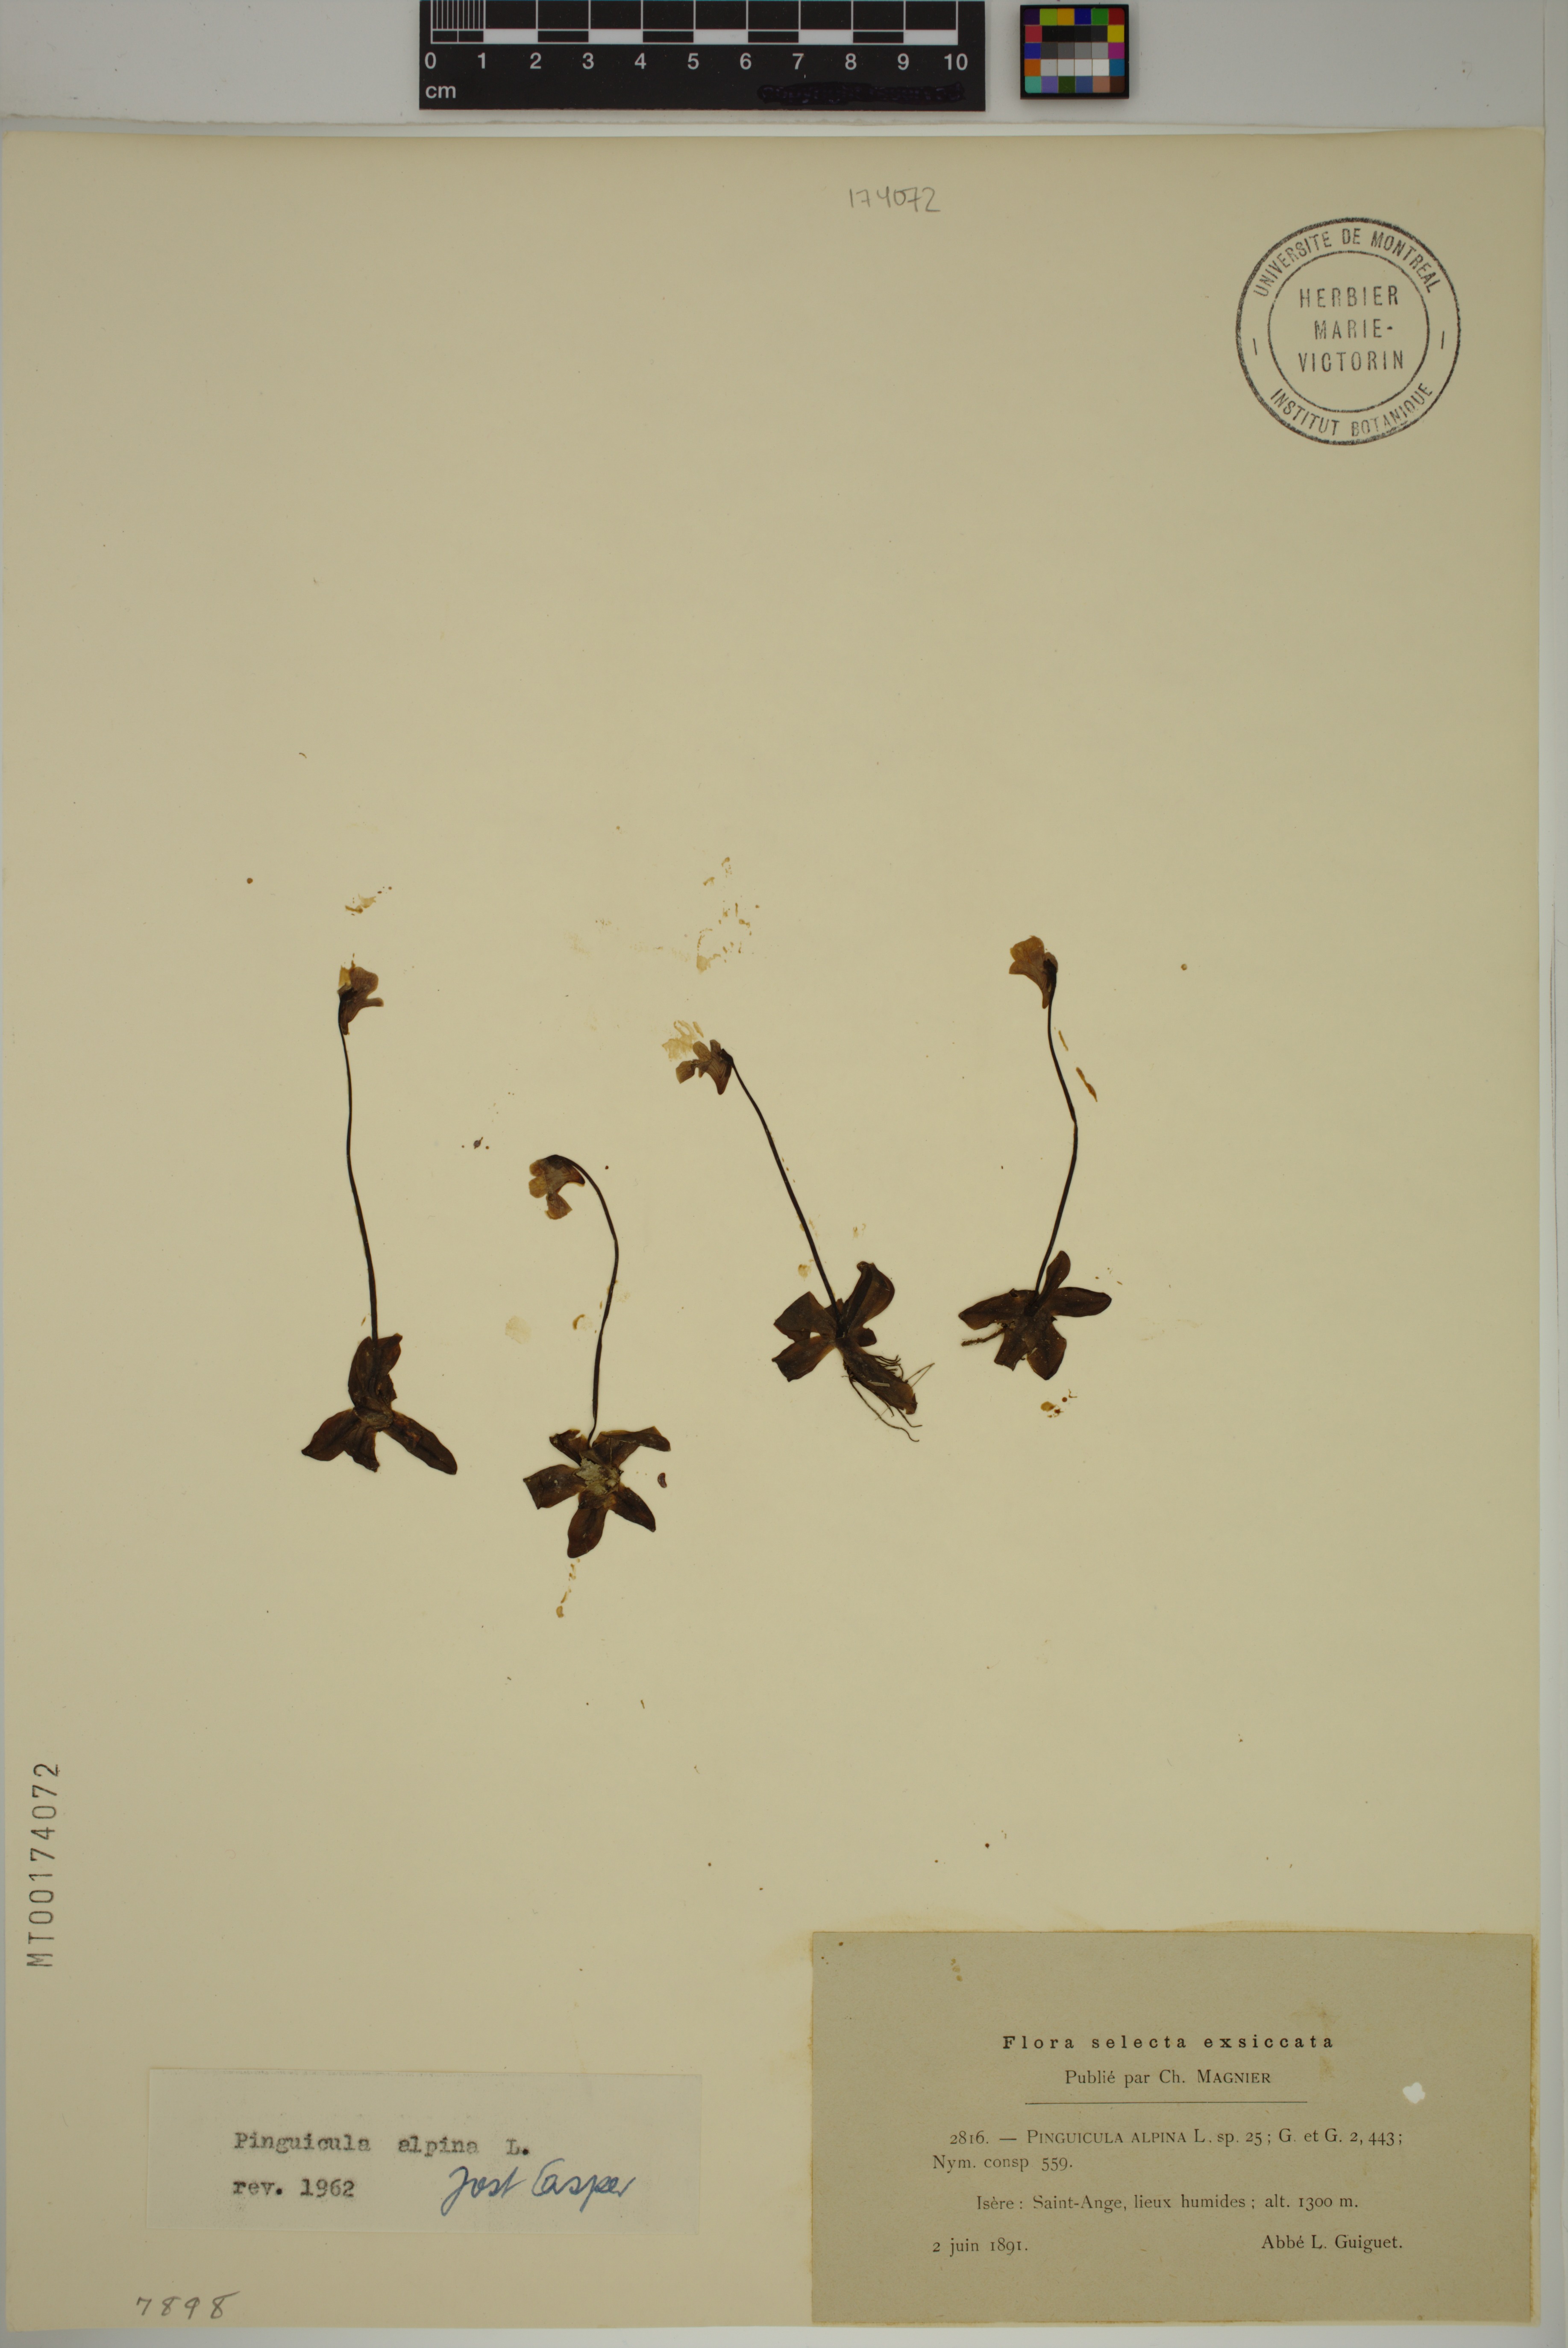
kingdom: Plantae
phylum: Tracheophyta
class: Magnoliopsida
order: Lamiales
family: Lentibulariaceae
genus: Pinguicula
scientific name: Pinguicula alpina
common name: Alpine butterwort
